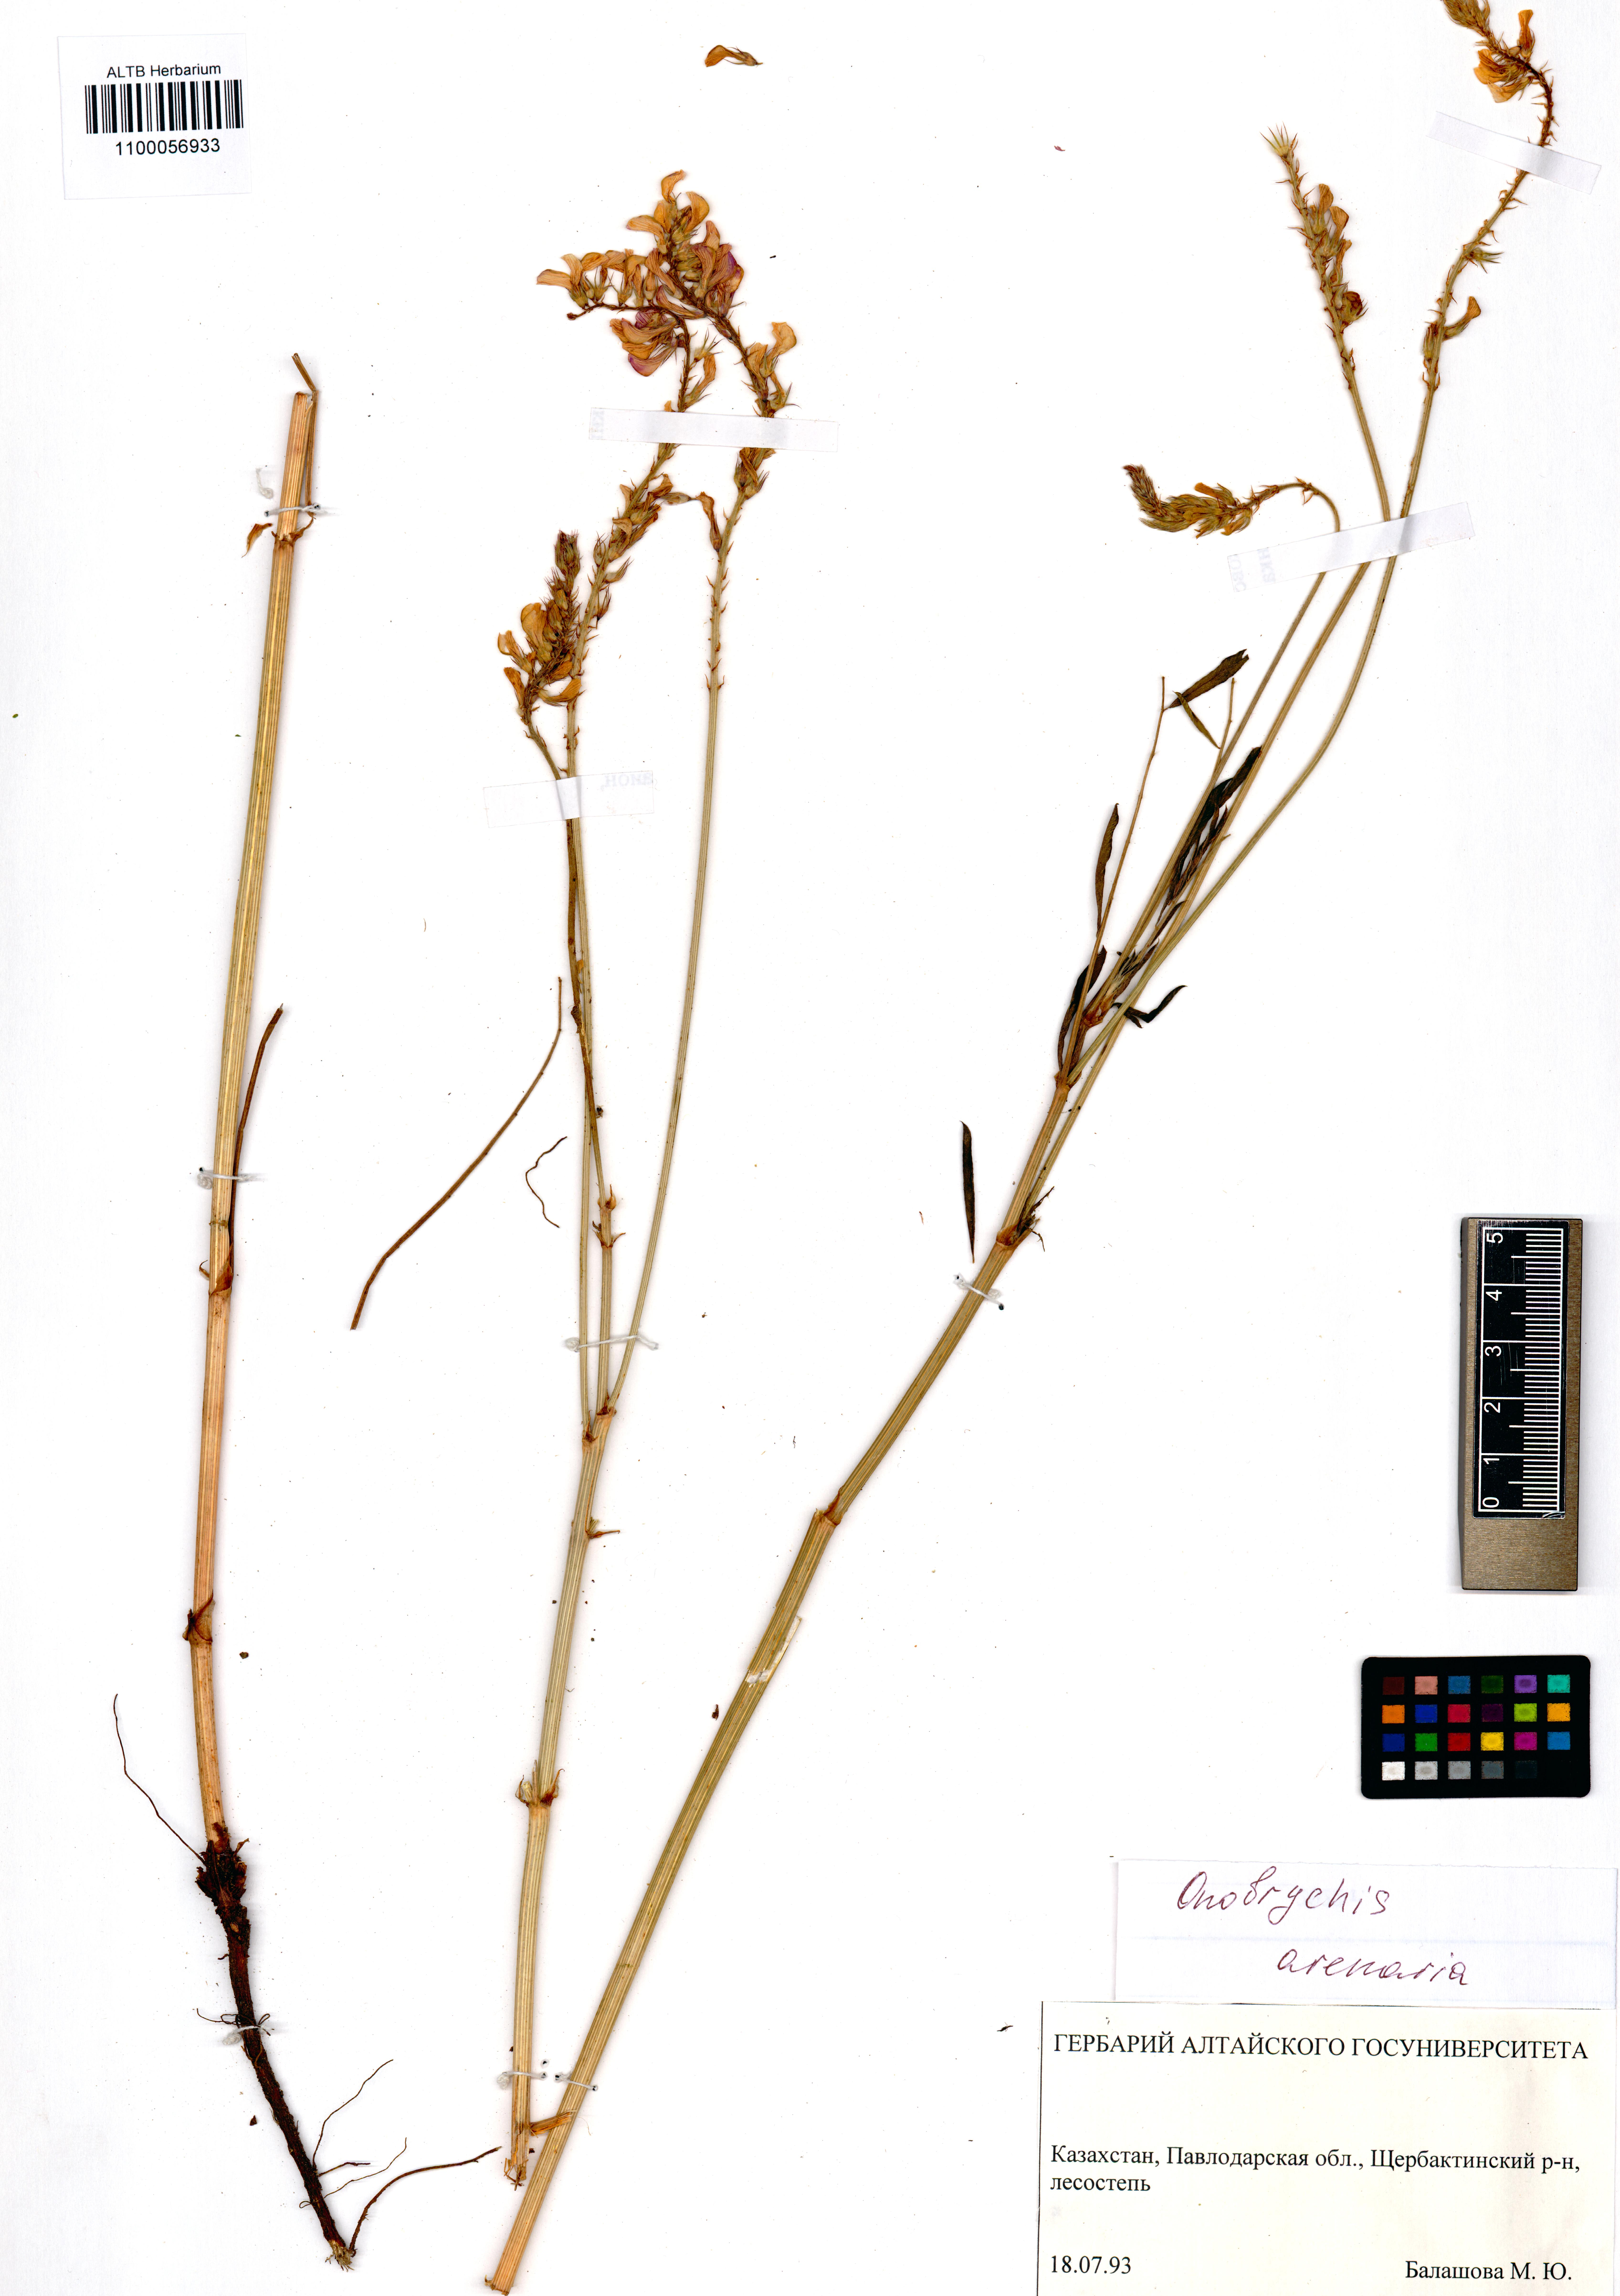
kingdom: Plantae
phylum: Tracheophyta
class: Magnoliopsida
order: Fabales
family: Fabaceae
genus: Onobrychis
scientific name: Onobrychis arenaria
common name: Sand esparcet
